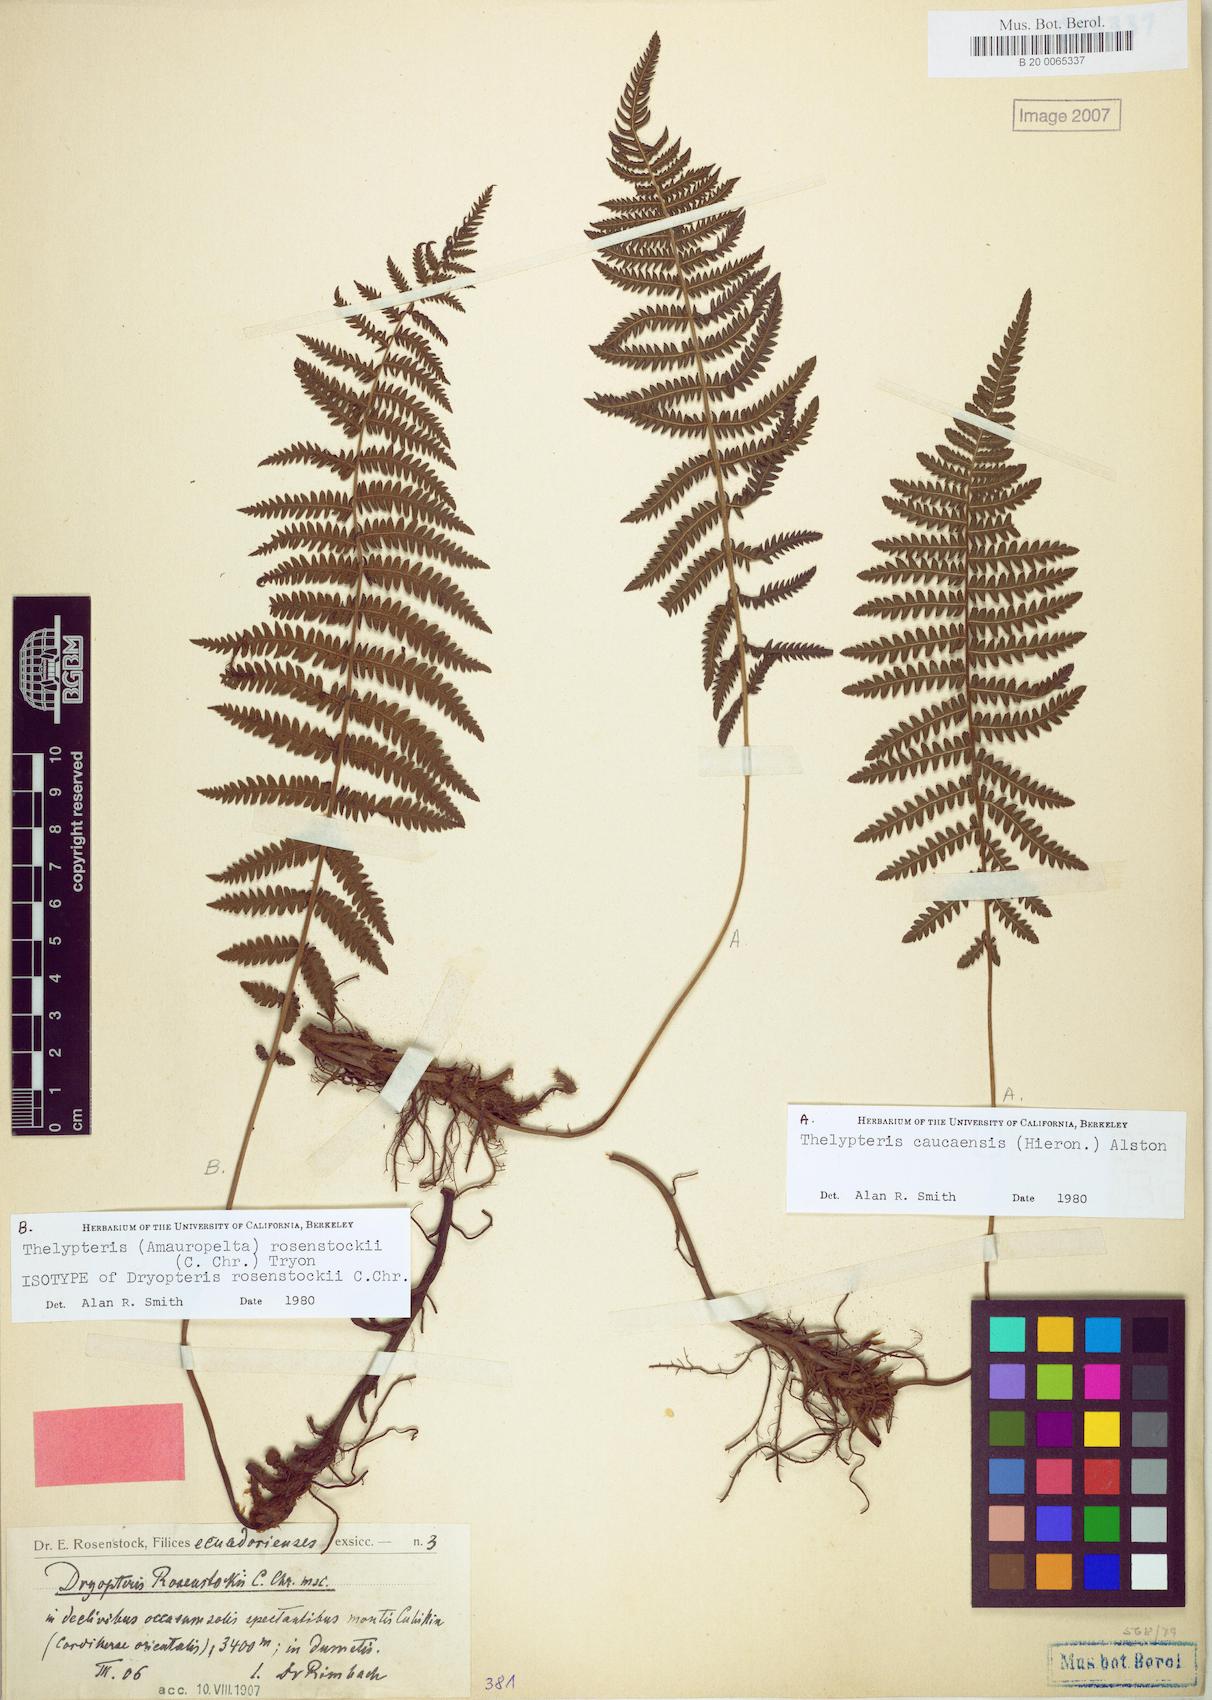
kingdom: Plantae
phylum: Tracheophyta
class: Polypodiopsida
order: Polypodiales
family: Thelypteridaceae
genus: Amauropelta
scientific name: Amauropelta rosenstockii
